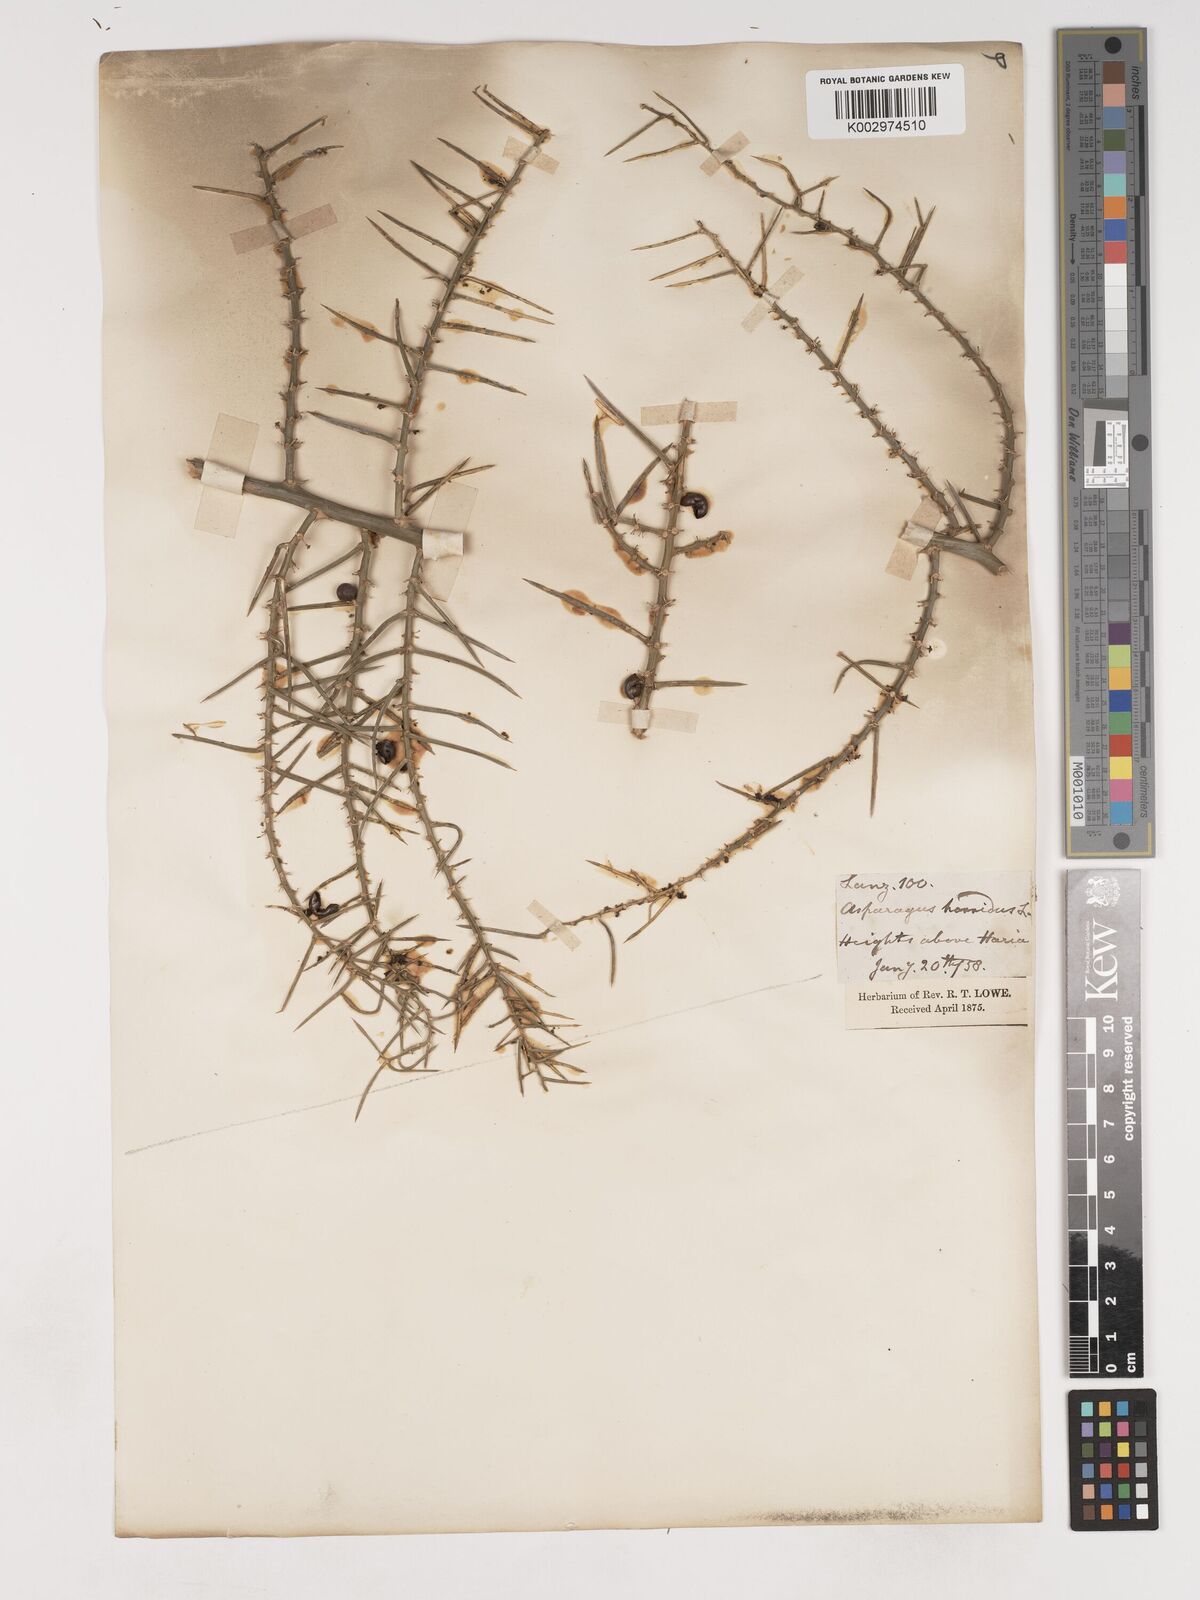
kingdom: Plantae
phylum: Tracheophyta
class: Liliopsida
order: Asparagales
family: Asparagaceae
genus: Asparagus
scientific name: Asparagus horridus
